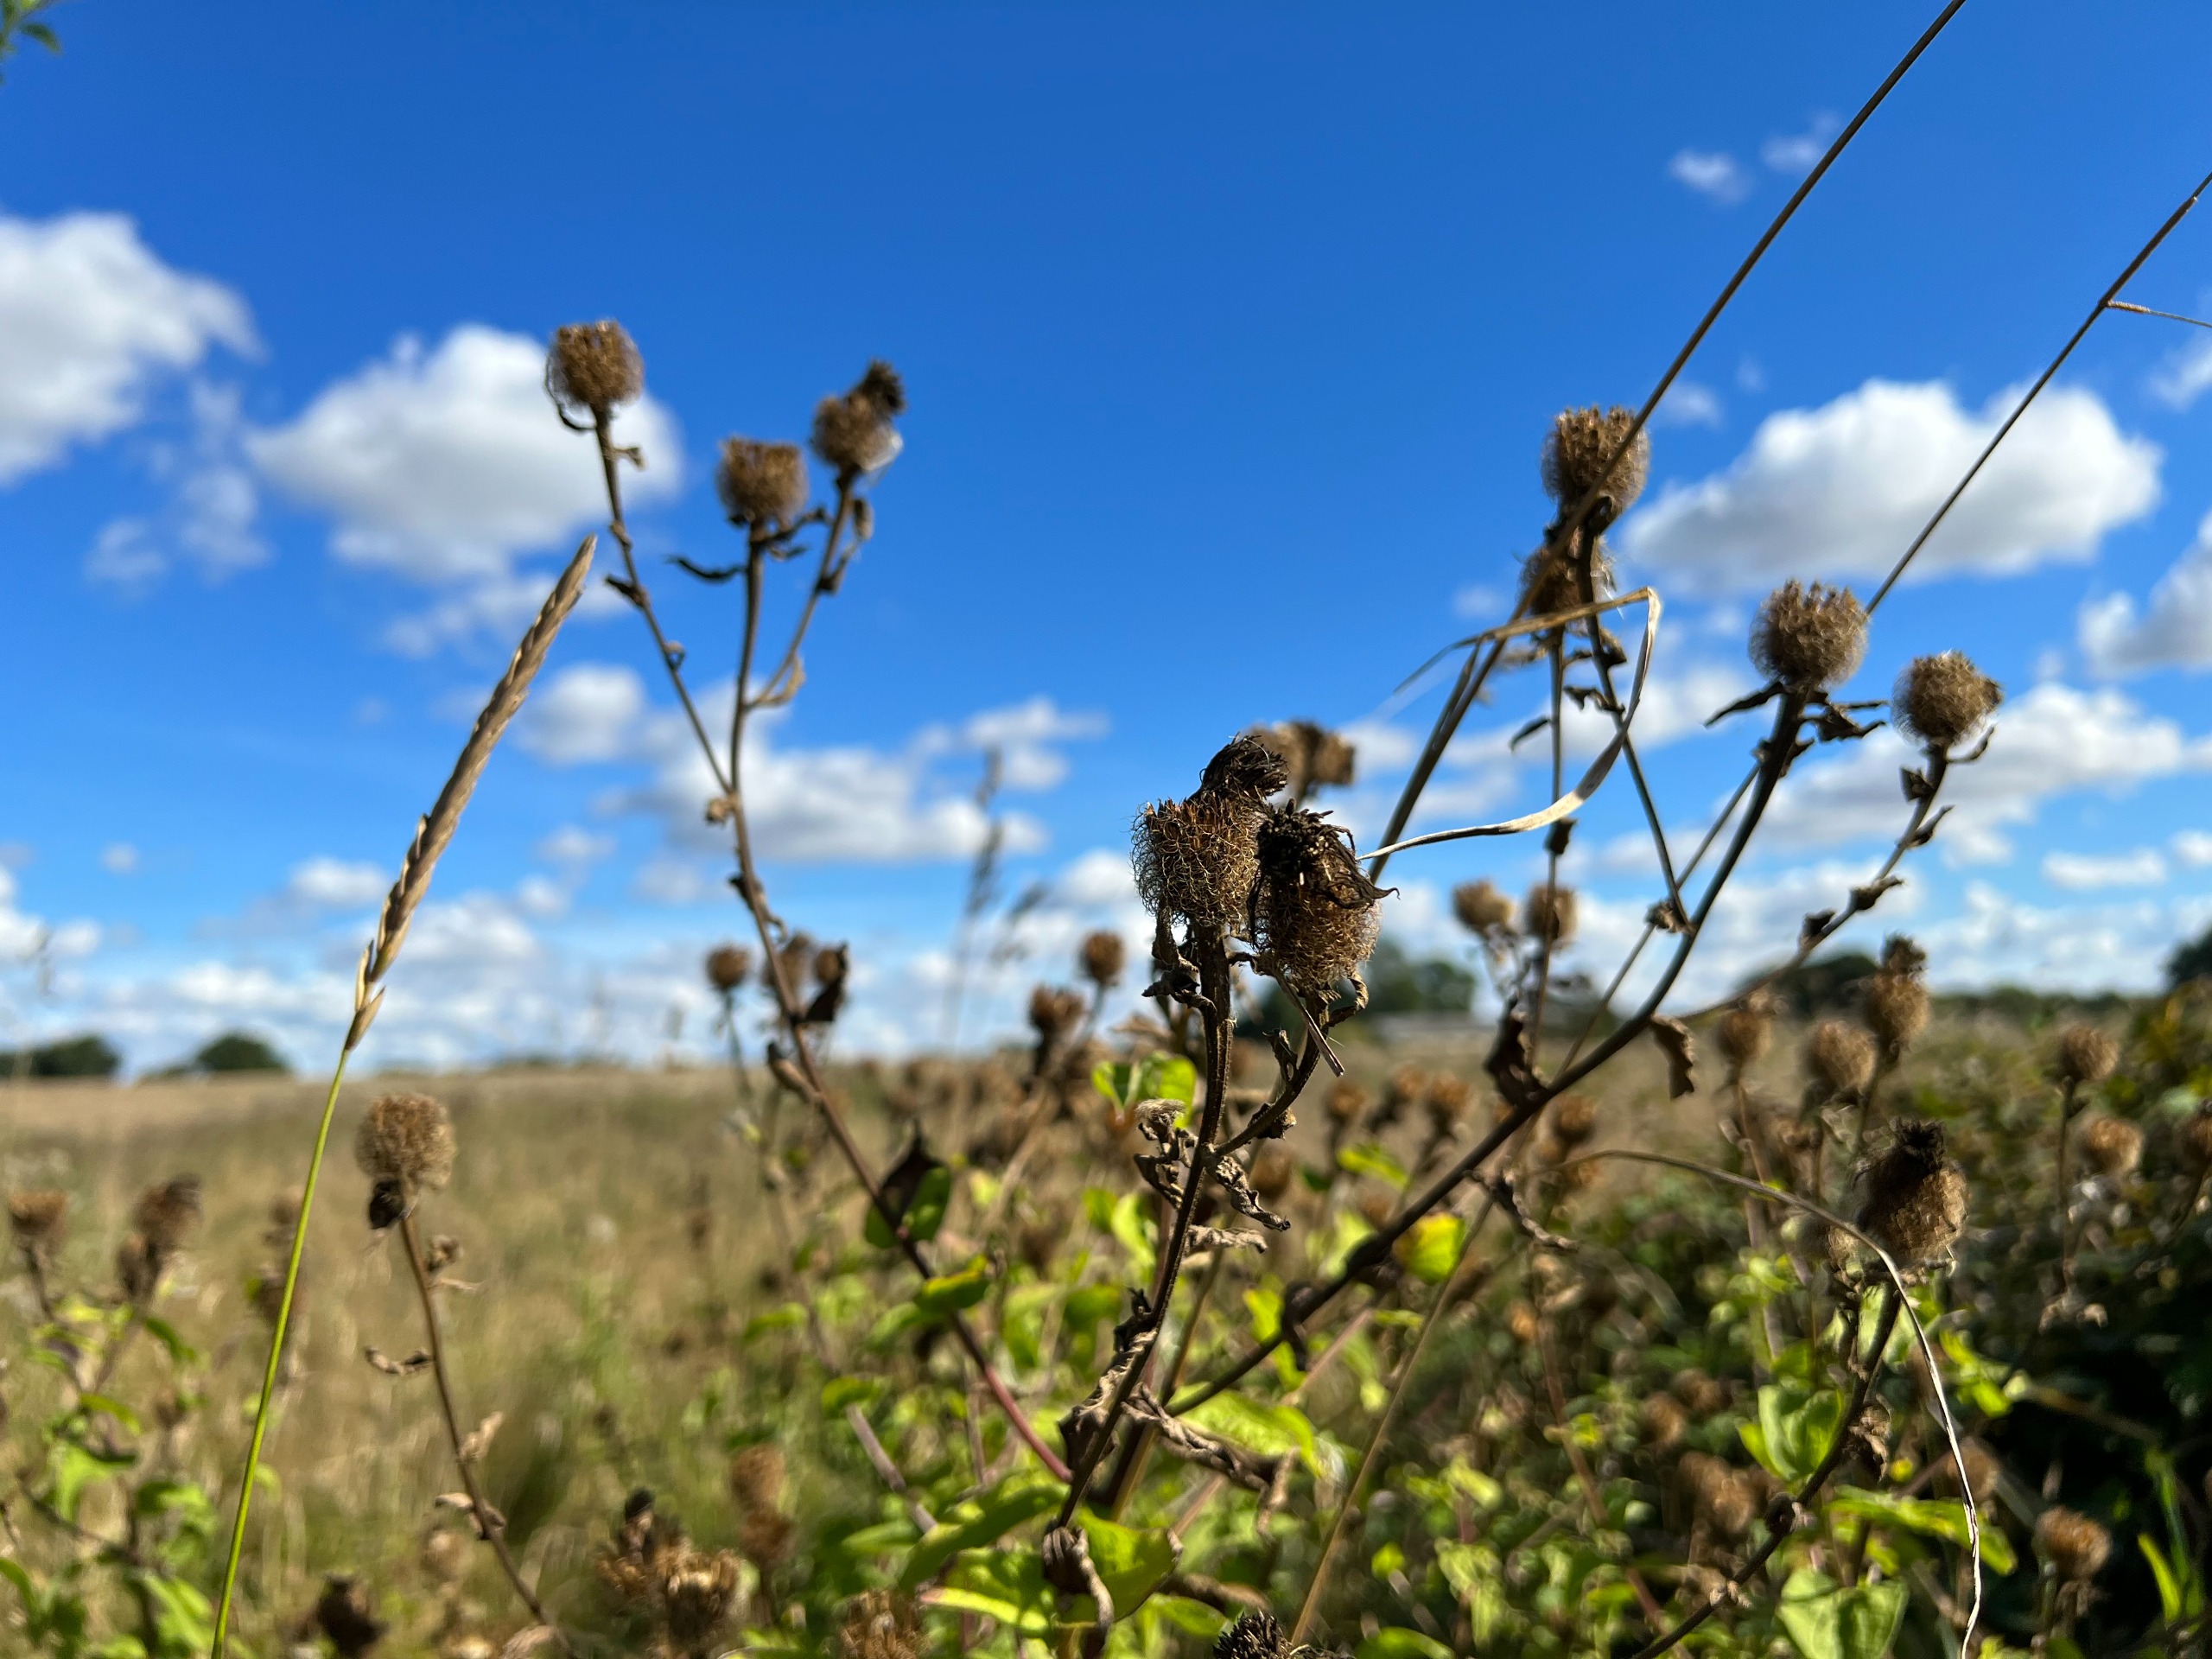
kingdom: Plantae
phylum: Tracheophyta
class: Magnoliopsida
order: Asterales
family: Asteraceae
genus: Centaurea
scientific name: Centaurea pseudophrygia
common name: Fjer-knopurt
